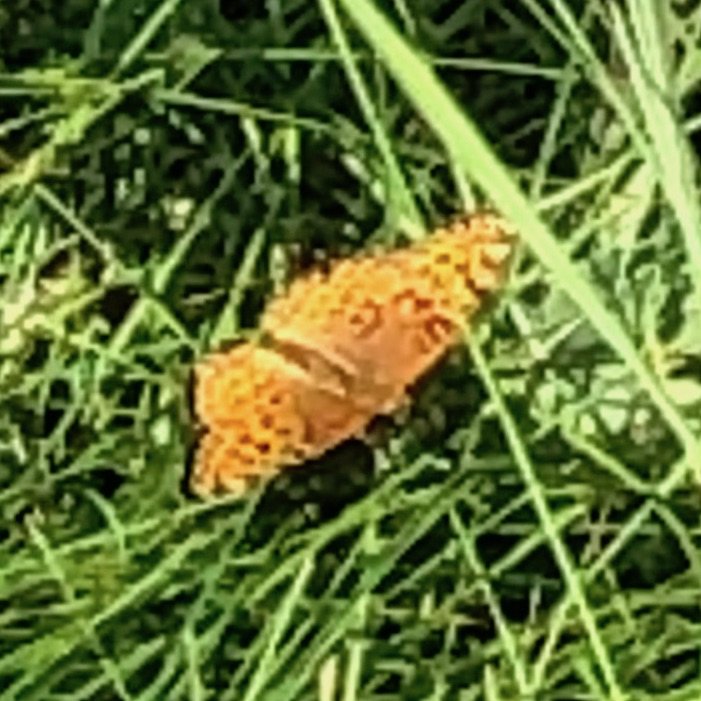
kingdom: Animalia
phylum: Arthropoda
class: Insecta
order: Lepidoptera
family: Nymphalidae
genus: Speyeria
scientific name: Speyeria atlantis
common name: Northwestern Fritillary
